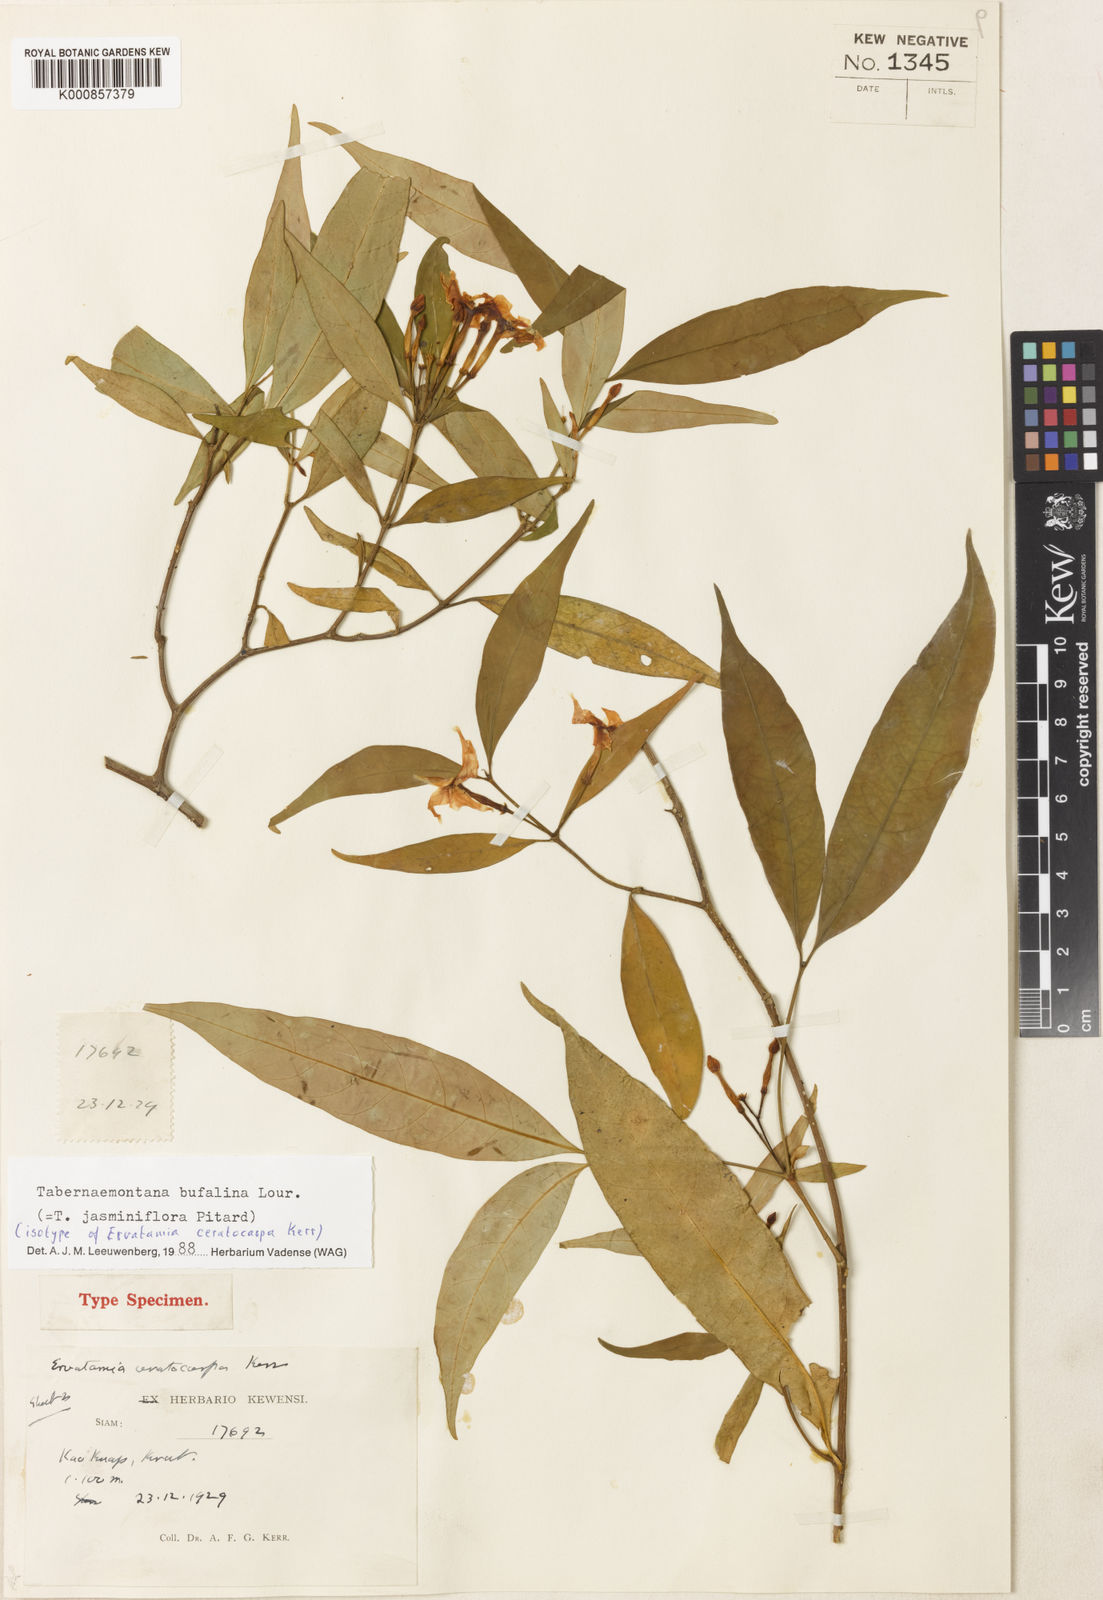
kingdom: Plantae
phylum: Tracheophyta
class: Magnoliopsida
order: Gentianales
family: Apocynaceae
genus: Tabernaemontana
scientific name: Tabernaemontana bufalina
